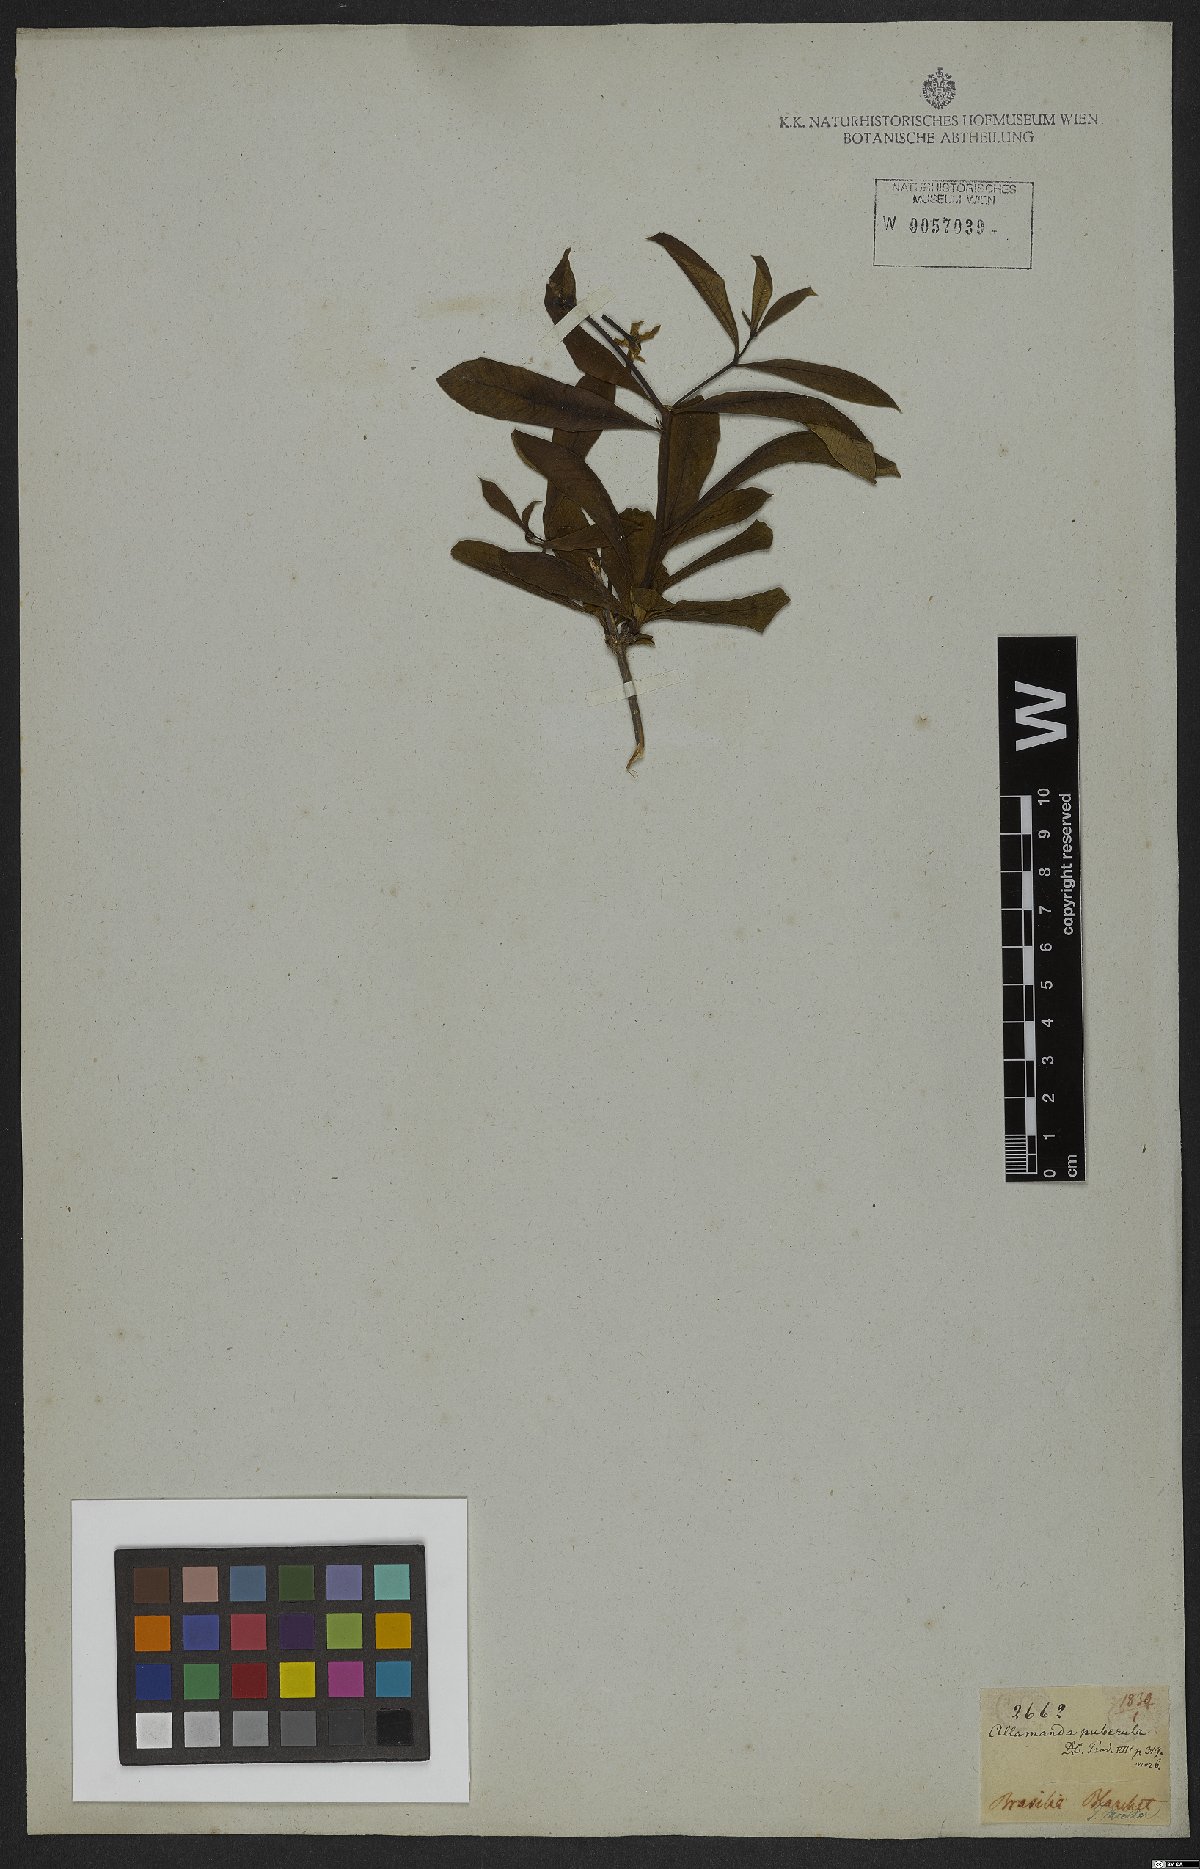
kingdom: Plantae
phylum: Tracheophyta
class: Magnoliopsida
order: Gentianales
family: Apocynaceae
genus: Allamanda
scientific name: Allamanda puberula
